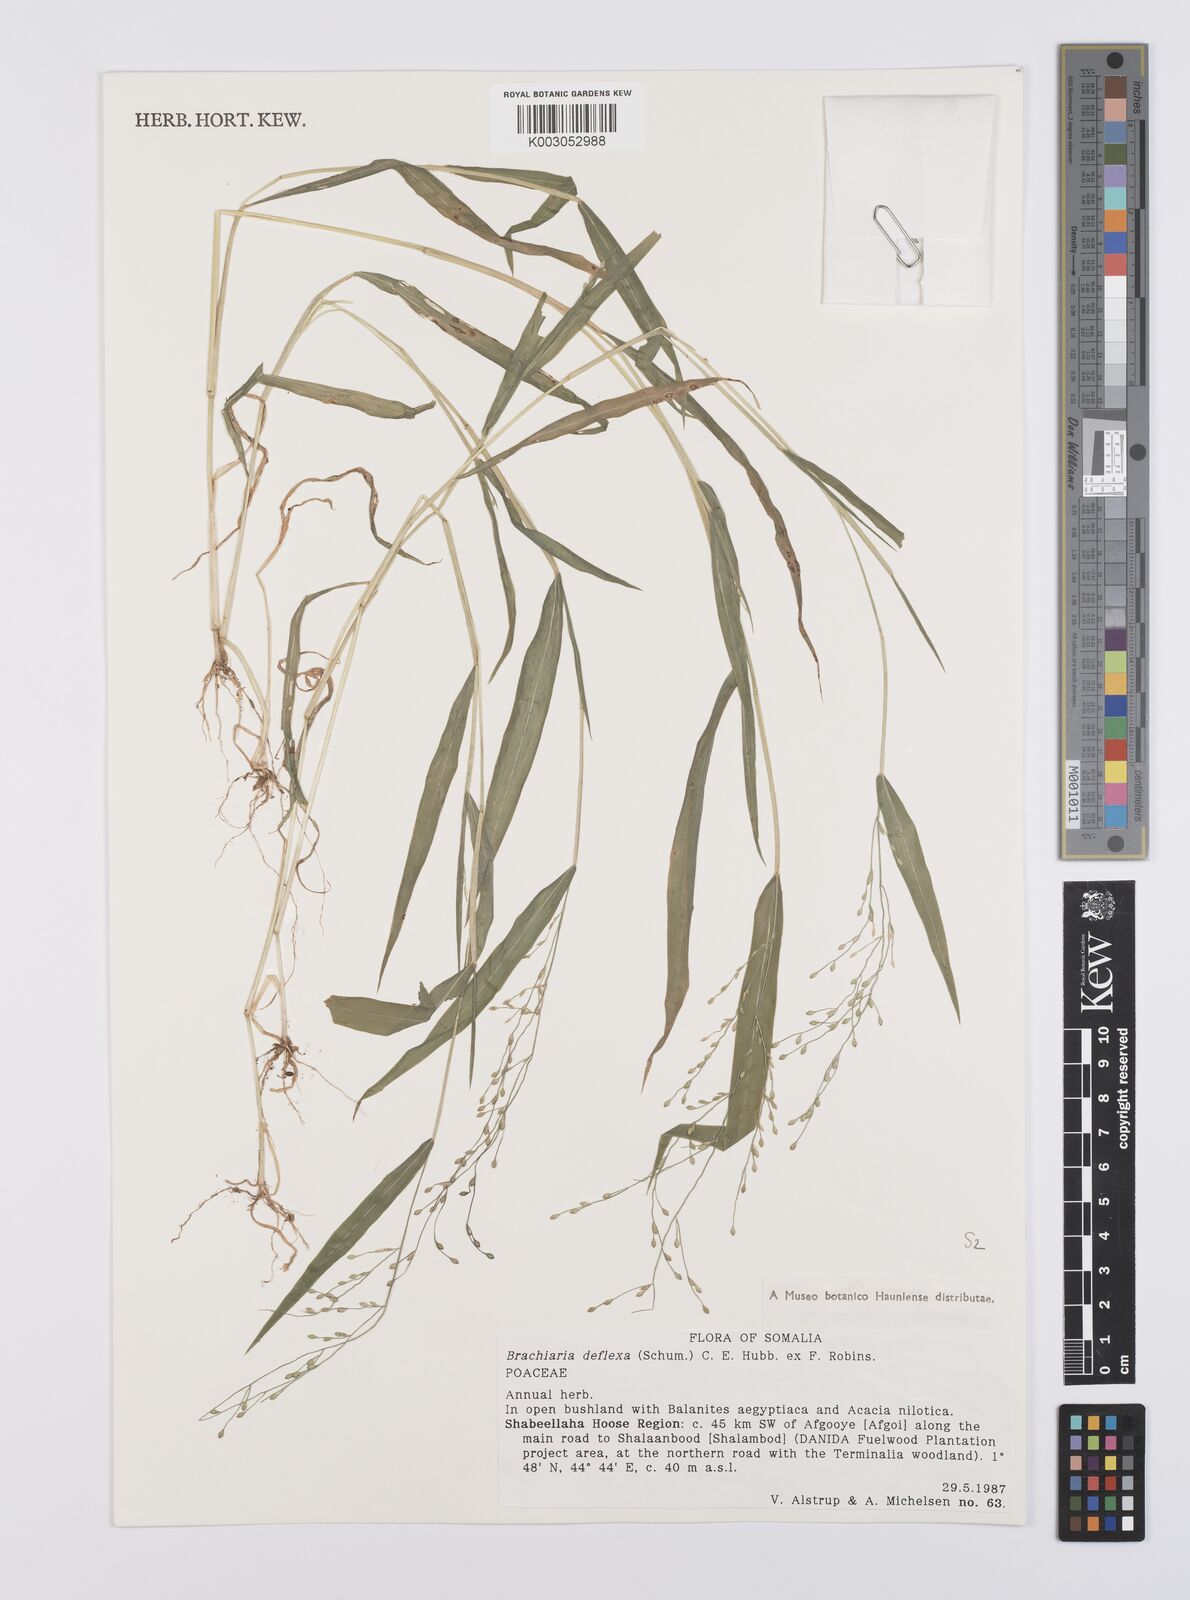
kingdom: Plantae
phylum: Tracheophyta
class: Liliopsida
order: Poales
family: Poaceae
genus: Urochloa
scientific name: Urochloa deflexa
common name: Guinea millet
